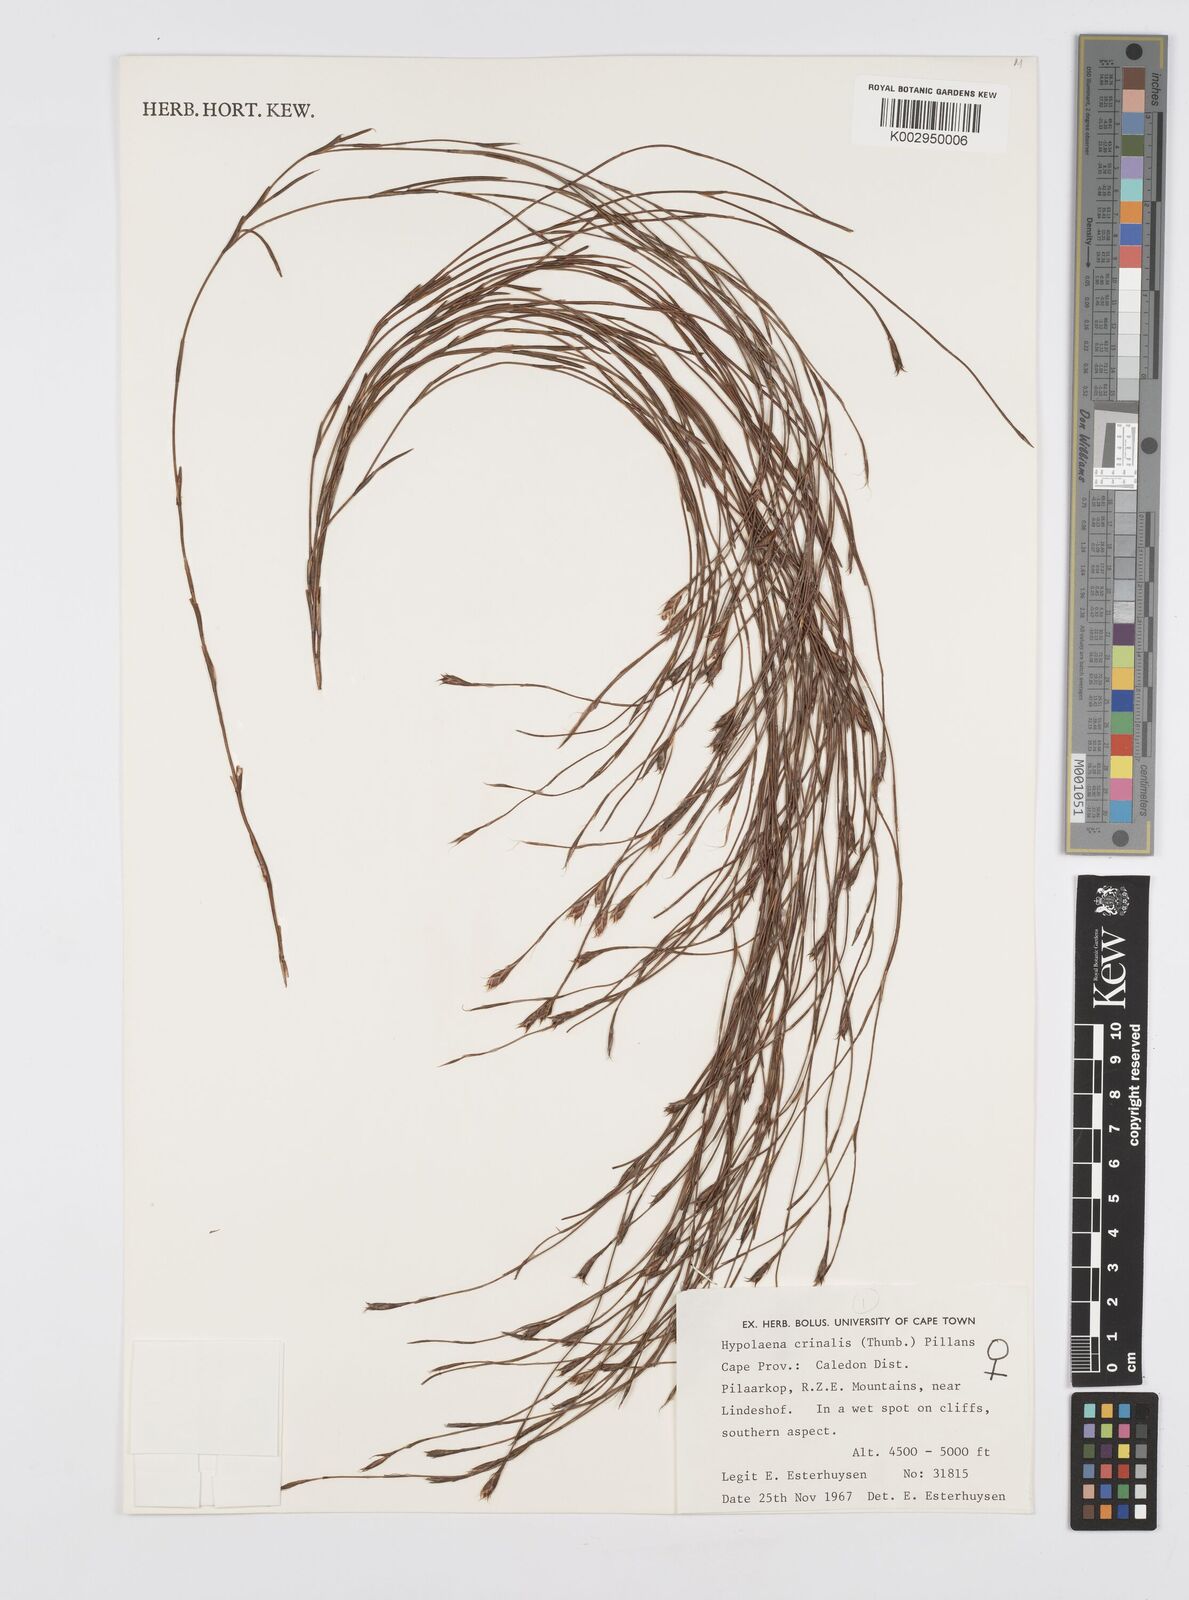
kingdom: Plantae
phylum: Tracheophyta
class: Liliopsida
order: Poales
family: Restionaceae
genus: Anthochortus
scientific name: Anthochortus crinalis
